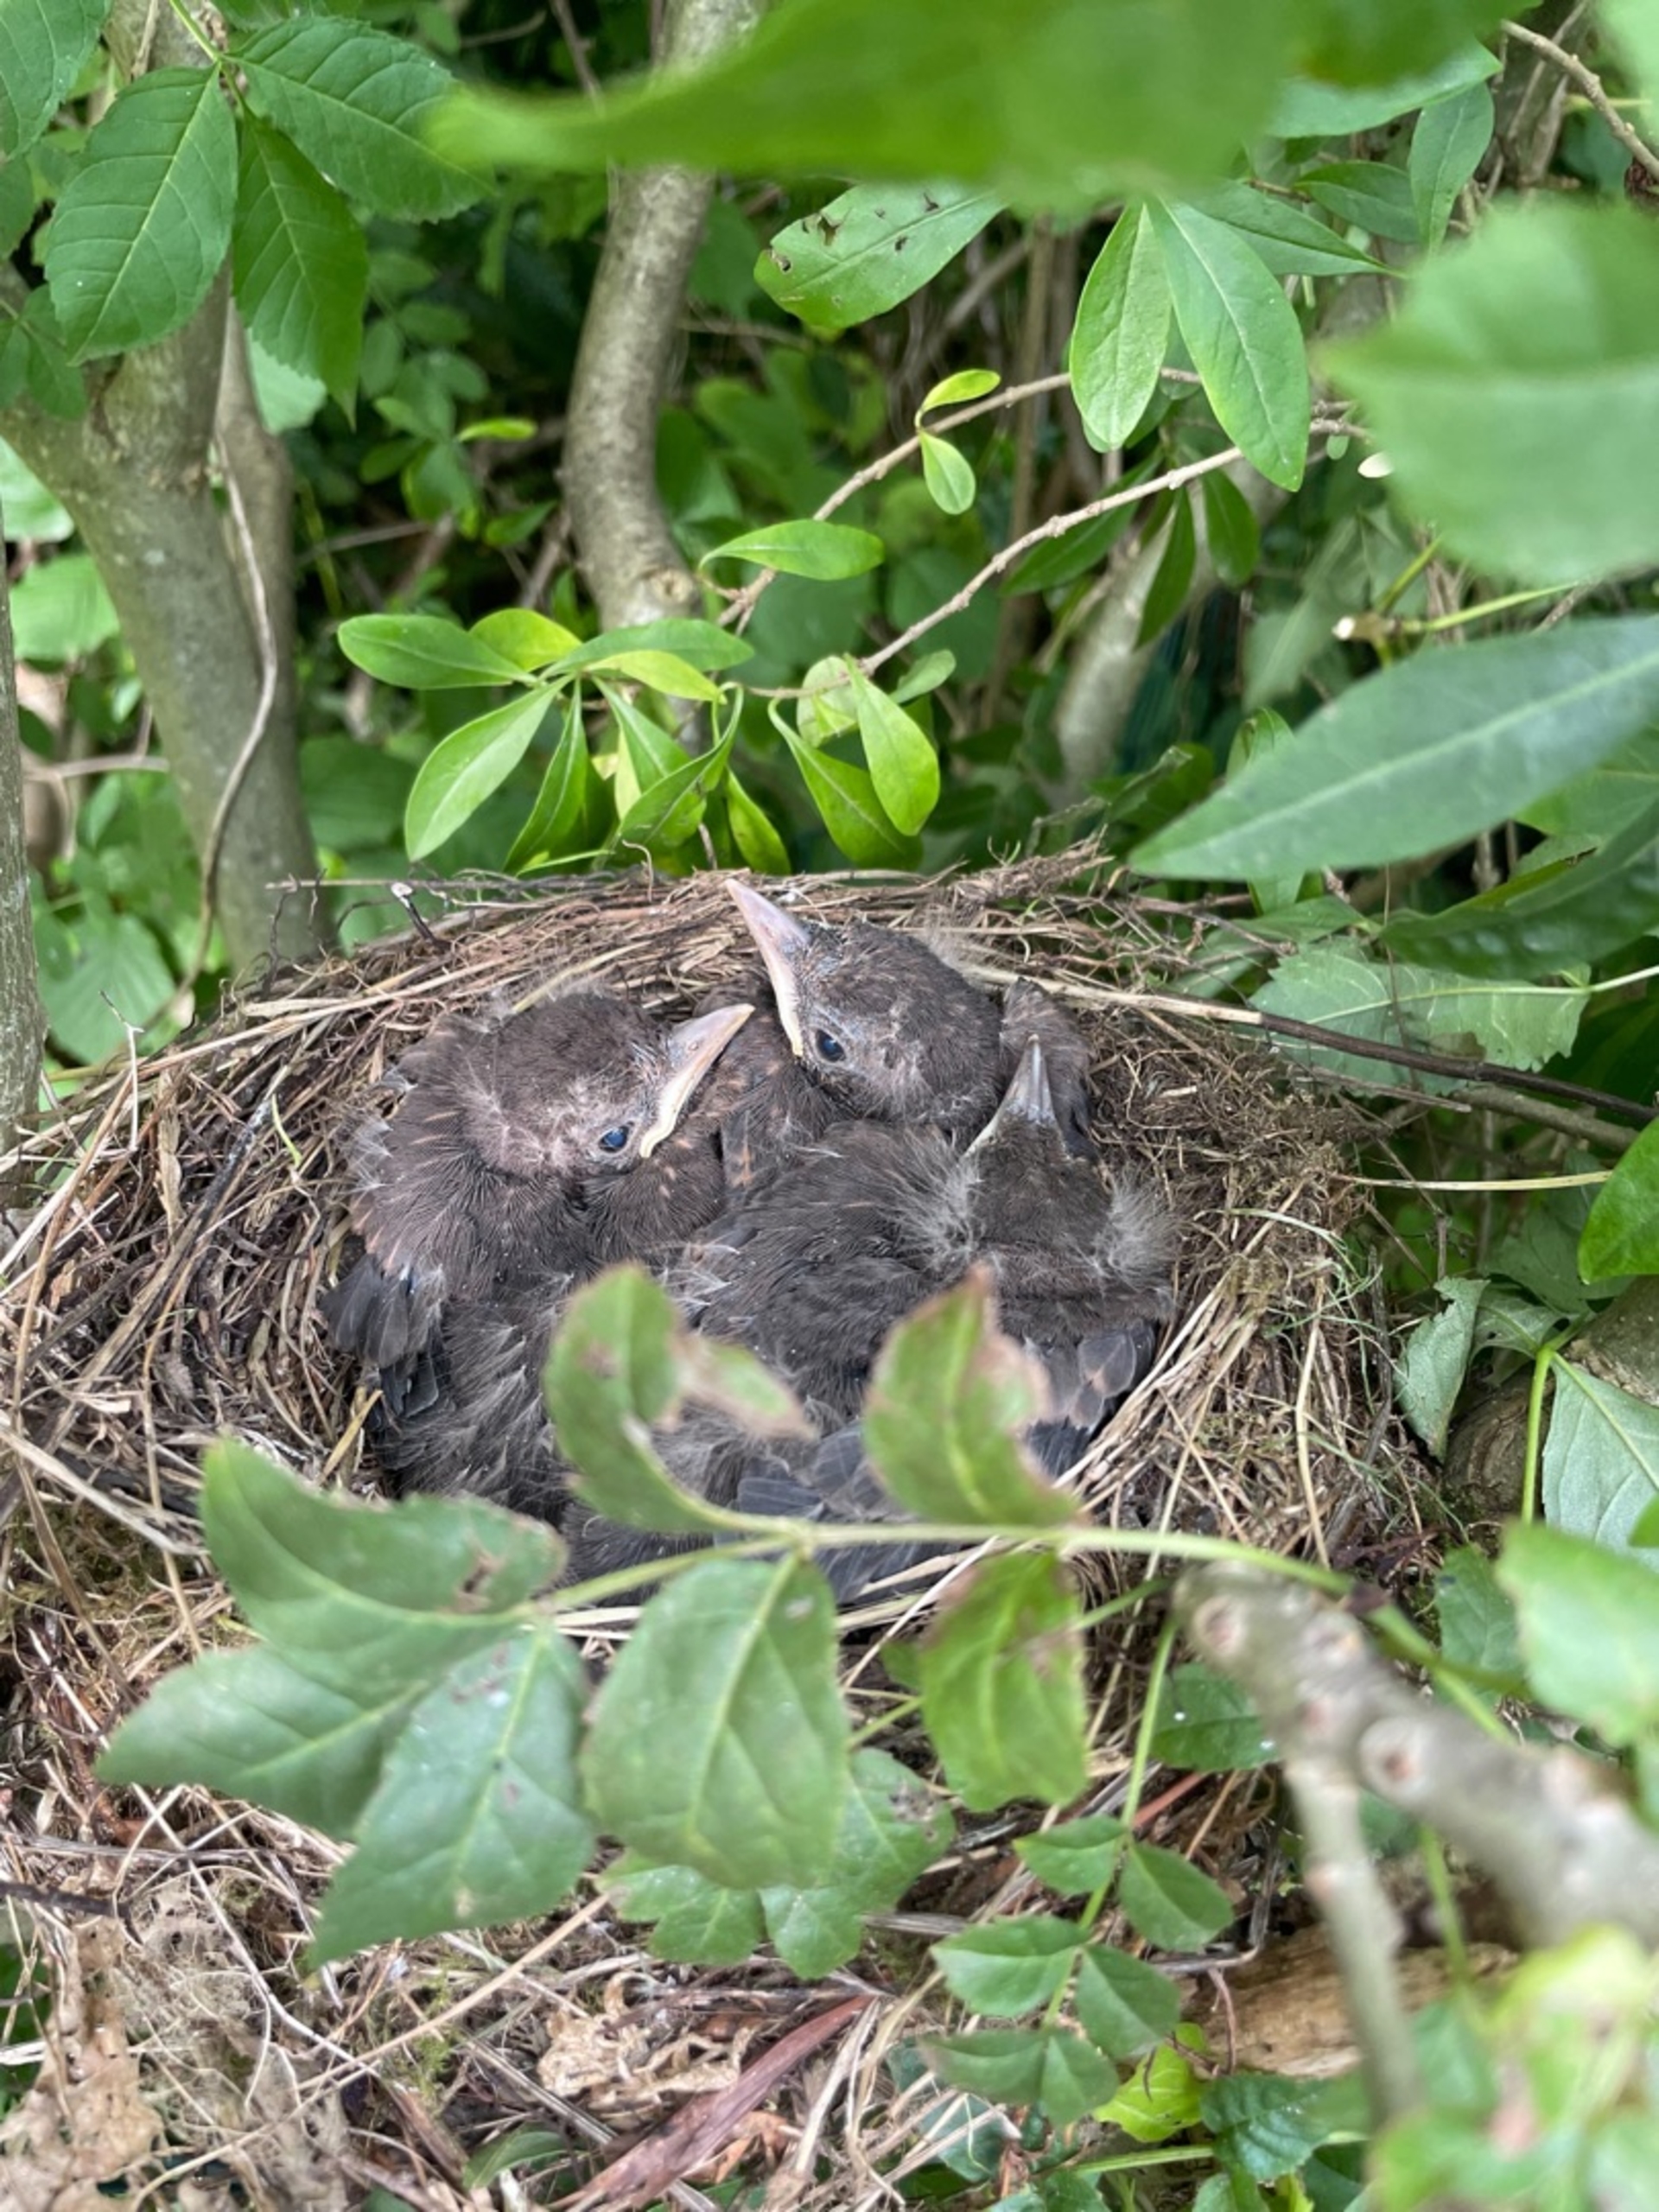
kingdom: Animalia
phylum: Chordata
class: Aves
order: Passeriformes
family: Turdidae
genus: Turdus
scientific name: Turdus merula
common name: Solsort
